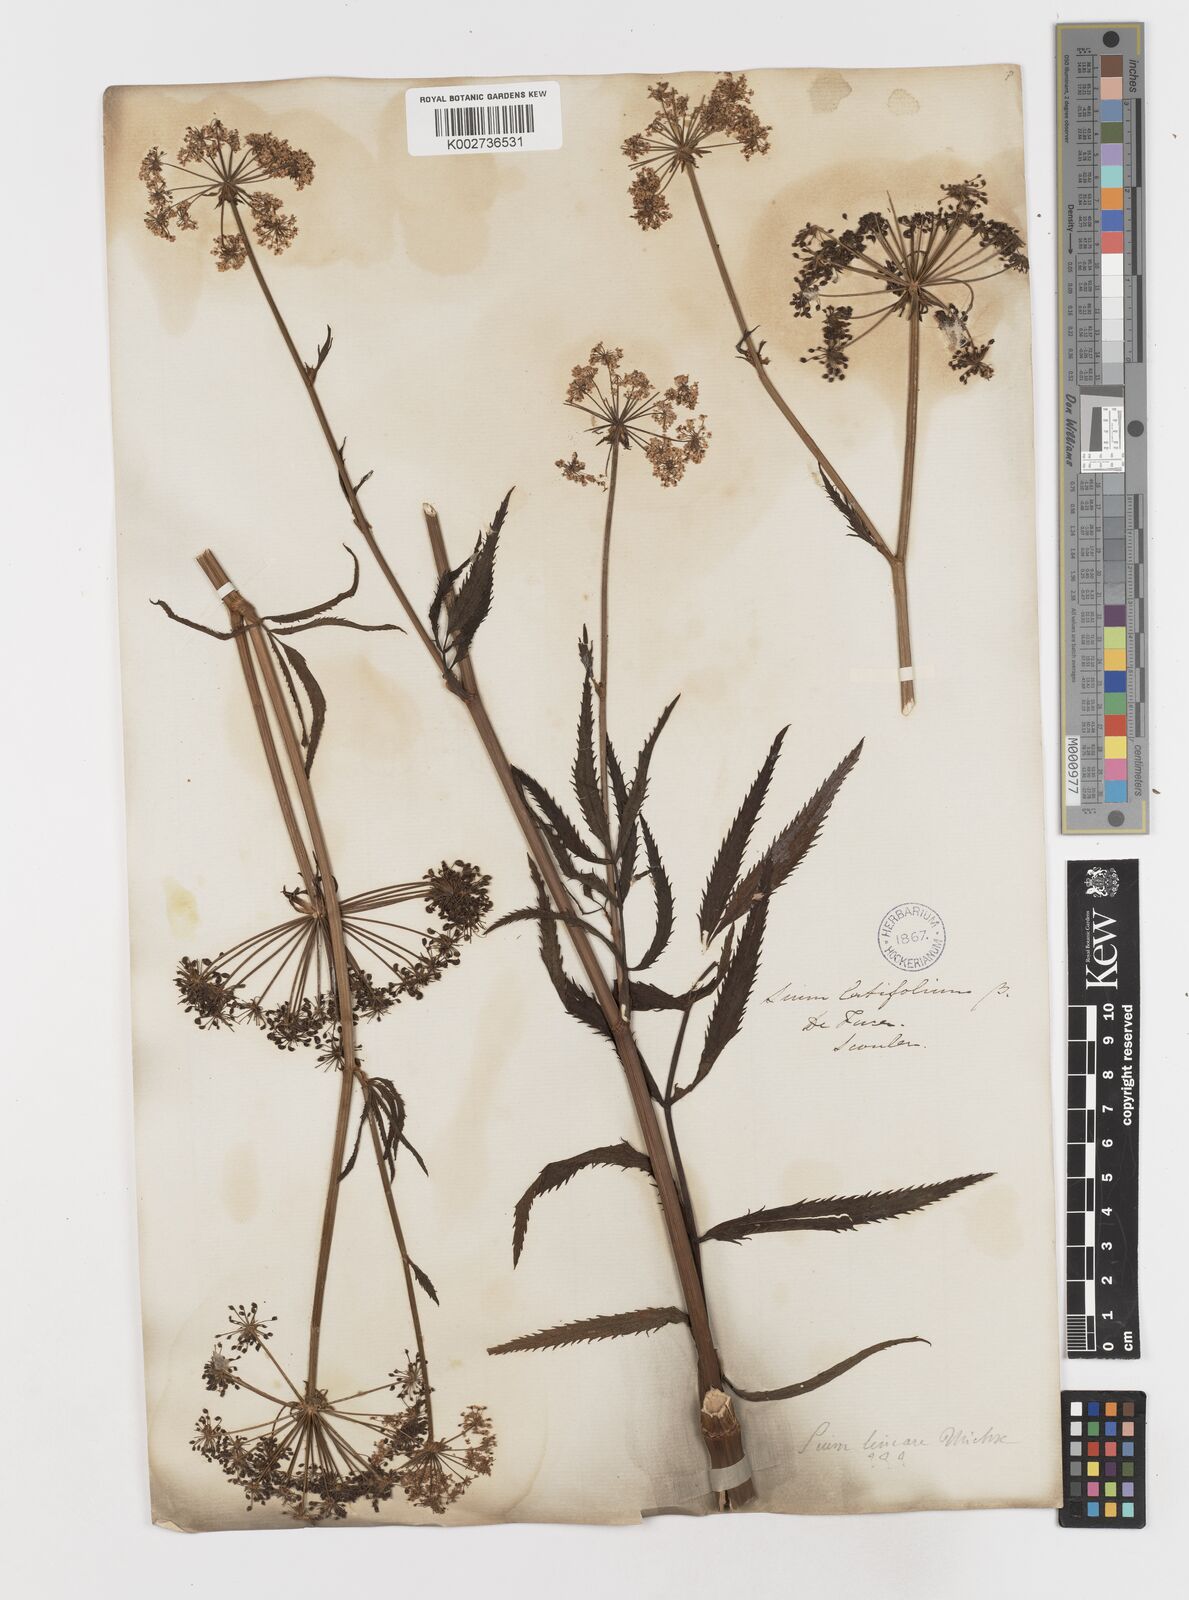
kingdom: Plantae
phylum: Tracheophyta
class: Magnoliopsida
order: Apiales
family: Apiaceae
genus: Sium
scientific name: Sium suave
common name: Hemlock water-parsnip
